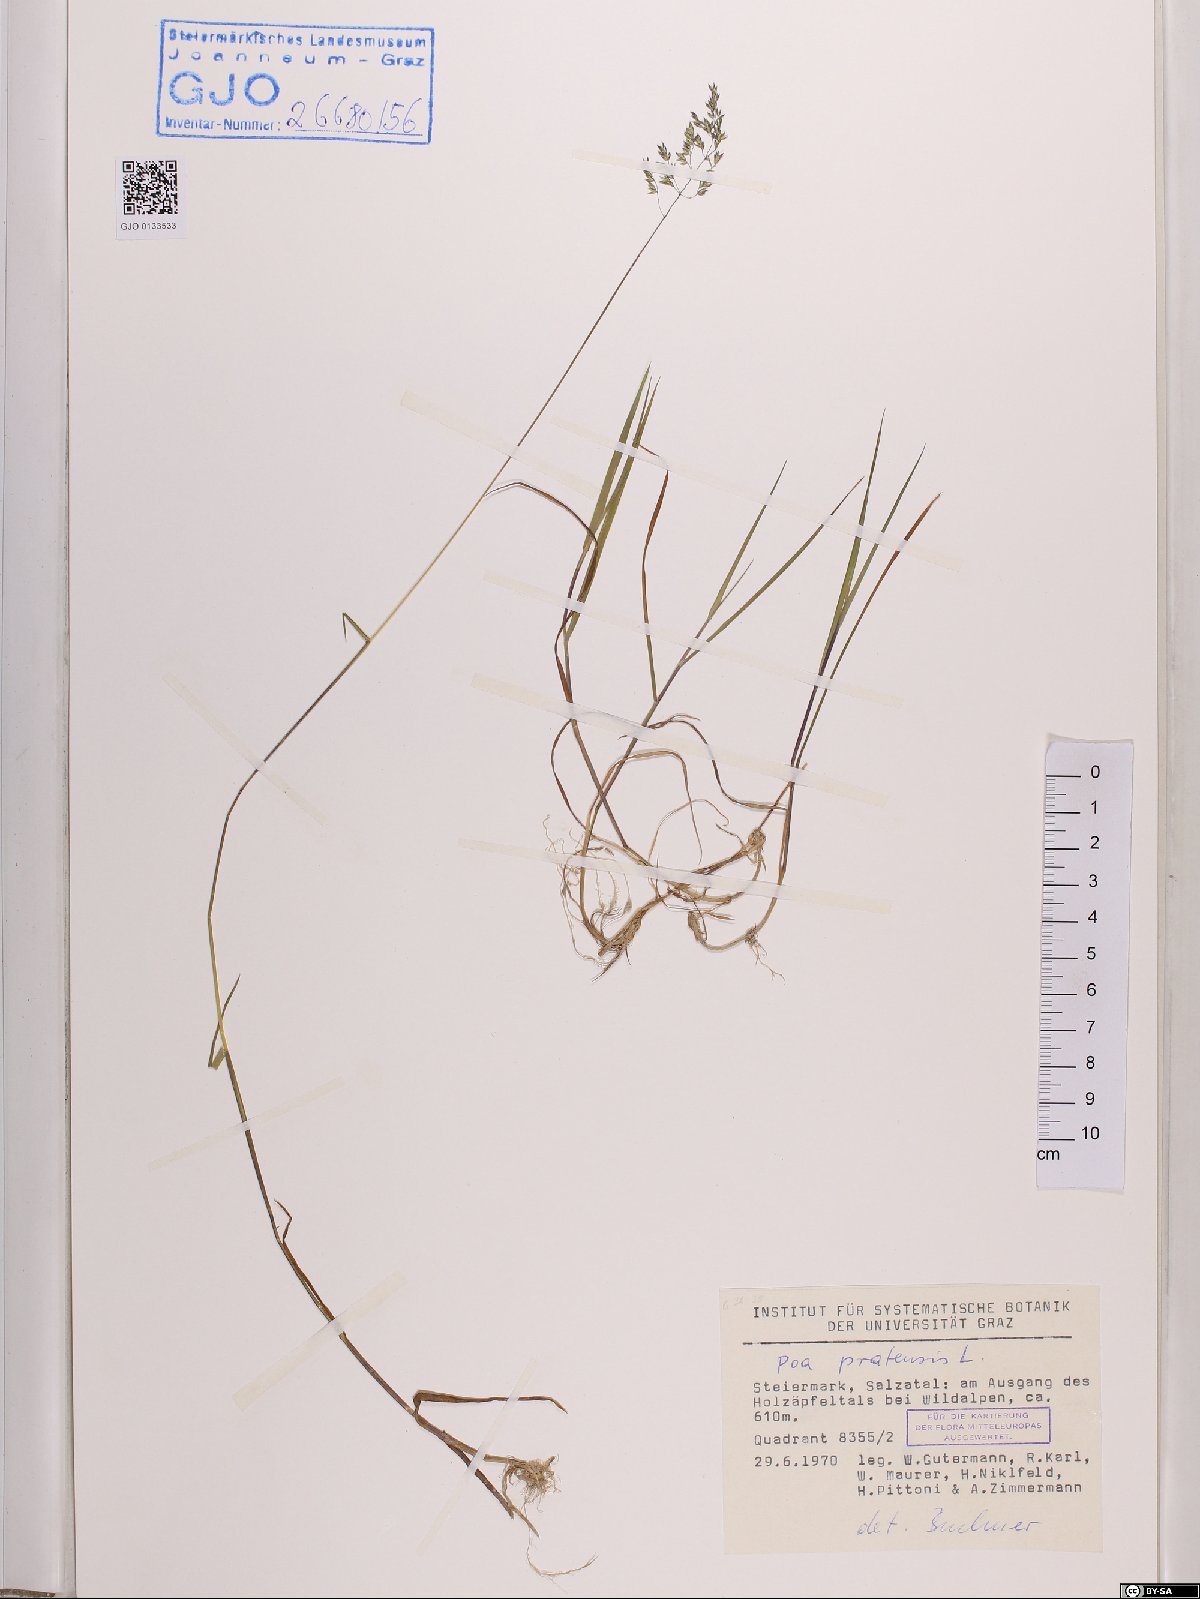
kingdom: Plantae
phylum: Tracheophyta
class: Liliopsida
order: Poales
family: Poaceae
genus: Poa
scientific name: Poa pratensis
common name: Kentucky bluegrass
